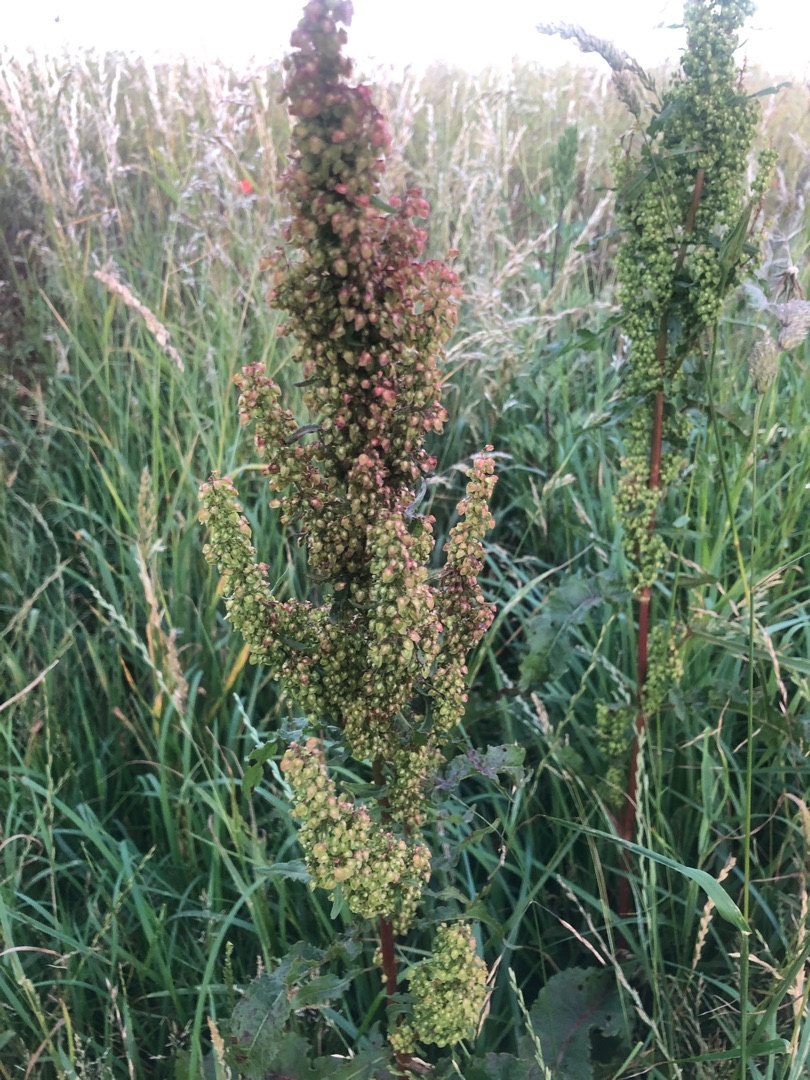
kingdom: Plantae
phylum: Tracheophyta
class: Magnoliopsida
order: Caryophyllales
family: Polygonaceae
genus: Rumex
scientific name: Rumex crispus
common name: Kruset skræppe
